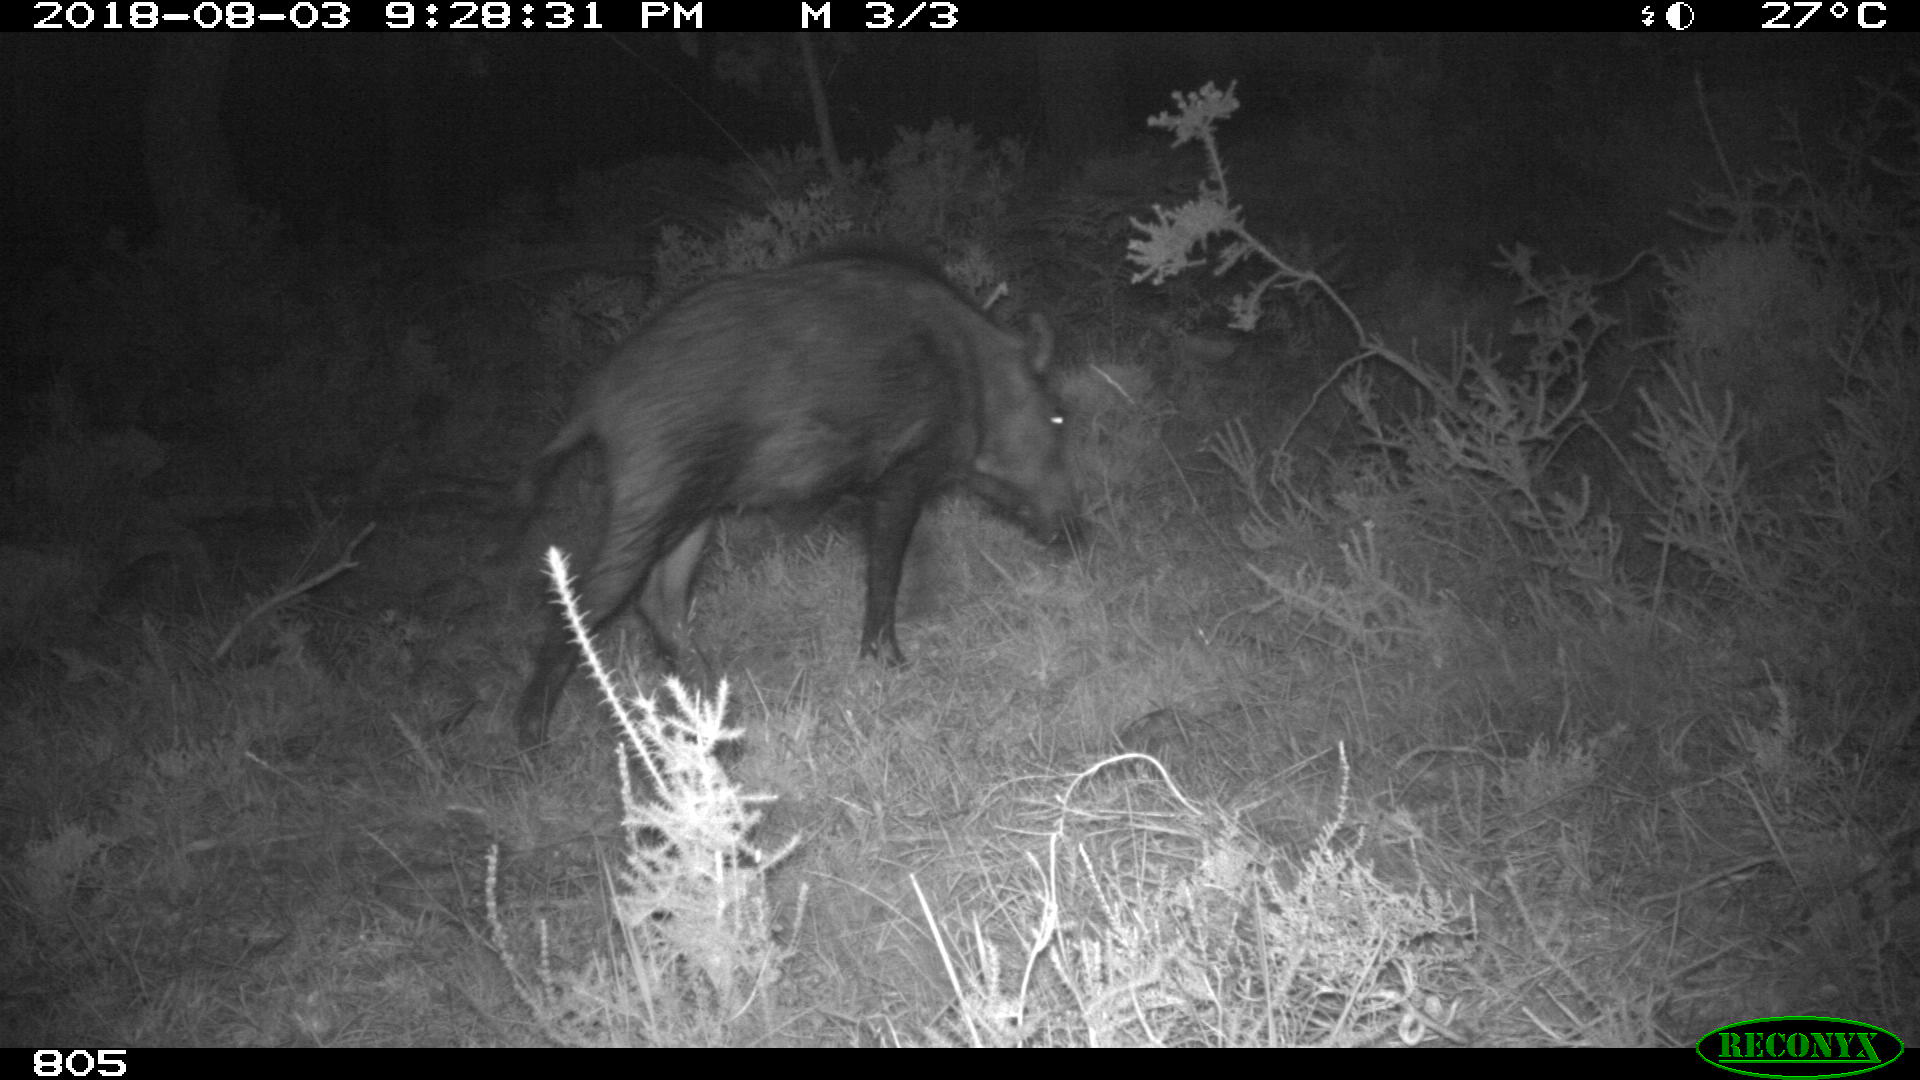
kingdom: Animalia
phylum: Chordata
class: Mammalia
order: Artiodactyla
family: Suidae
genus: Sus
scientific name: Sus scrofa
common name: Wild boar
